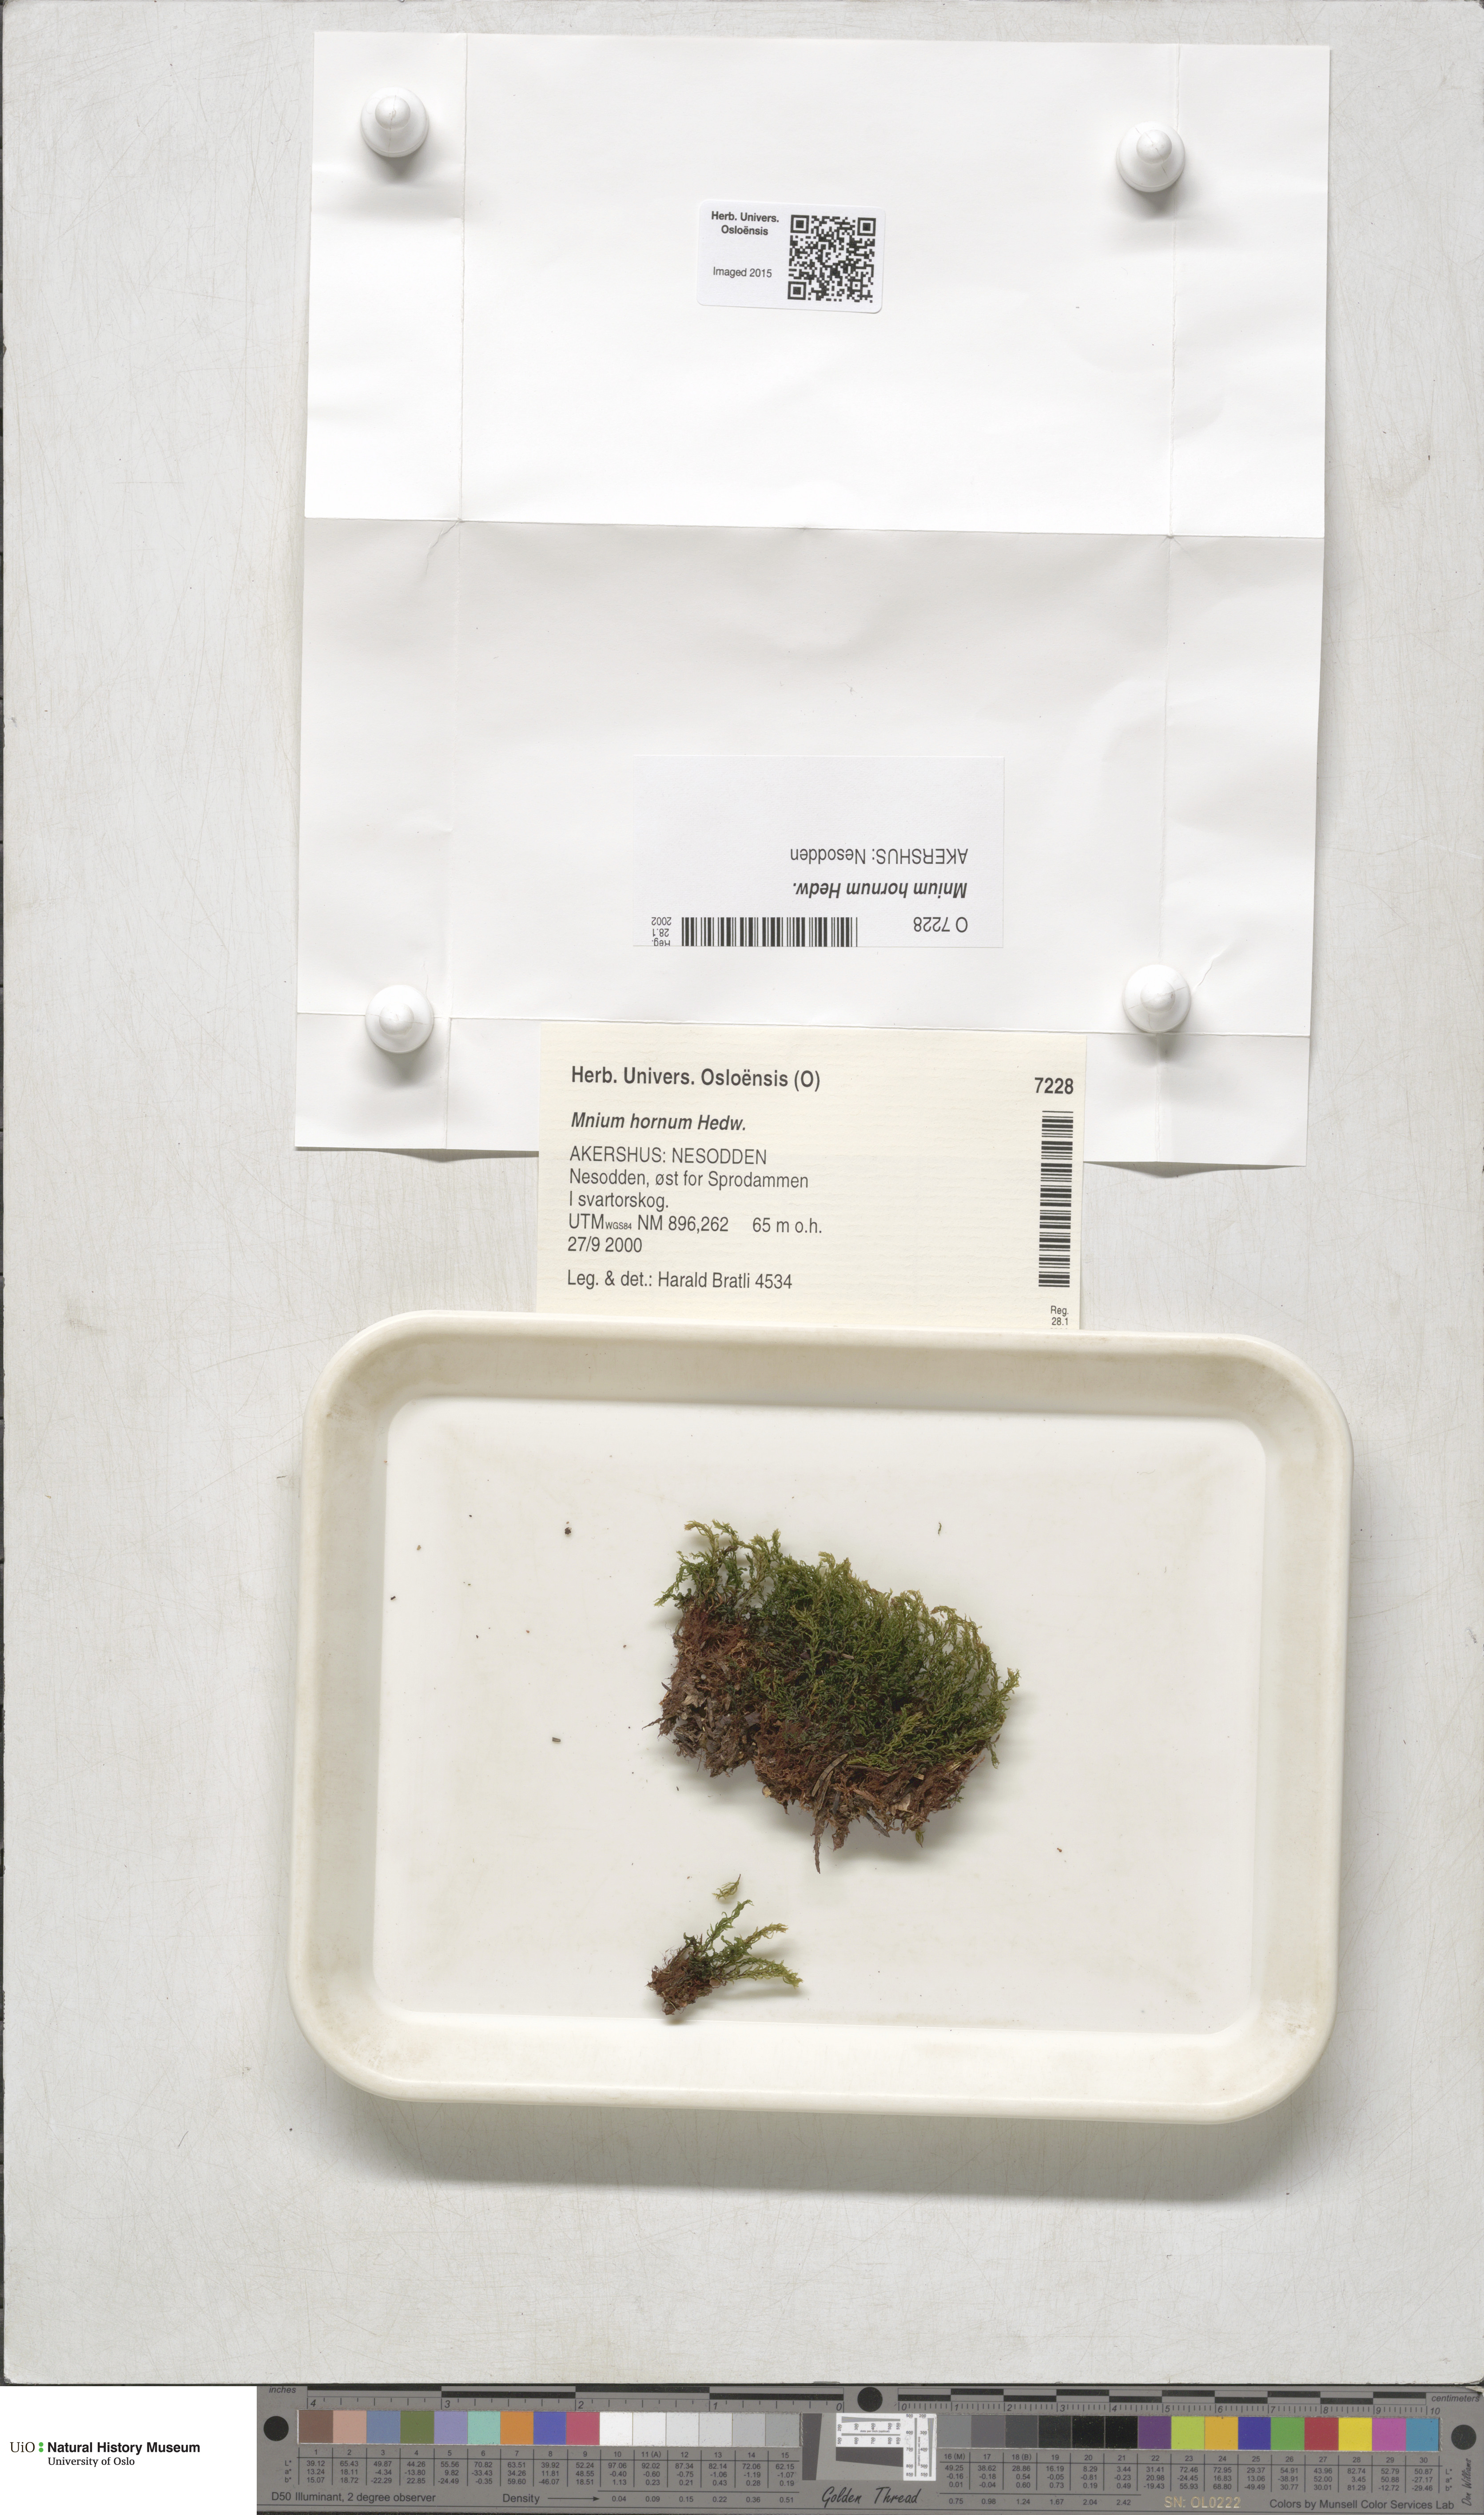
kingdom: Plantae
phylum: Bryophyta
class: Bryopsida
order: Bryales
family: Mniaceae
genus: Mnium
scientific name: Mnium hornum
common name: Swan's-neck leafy moss
